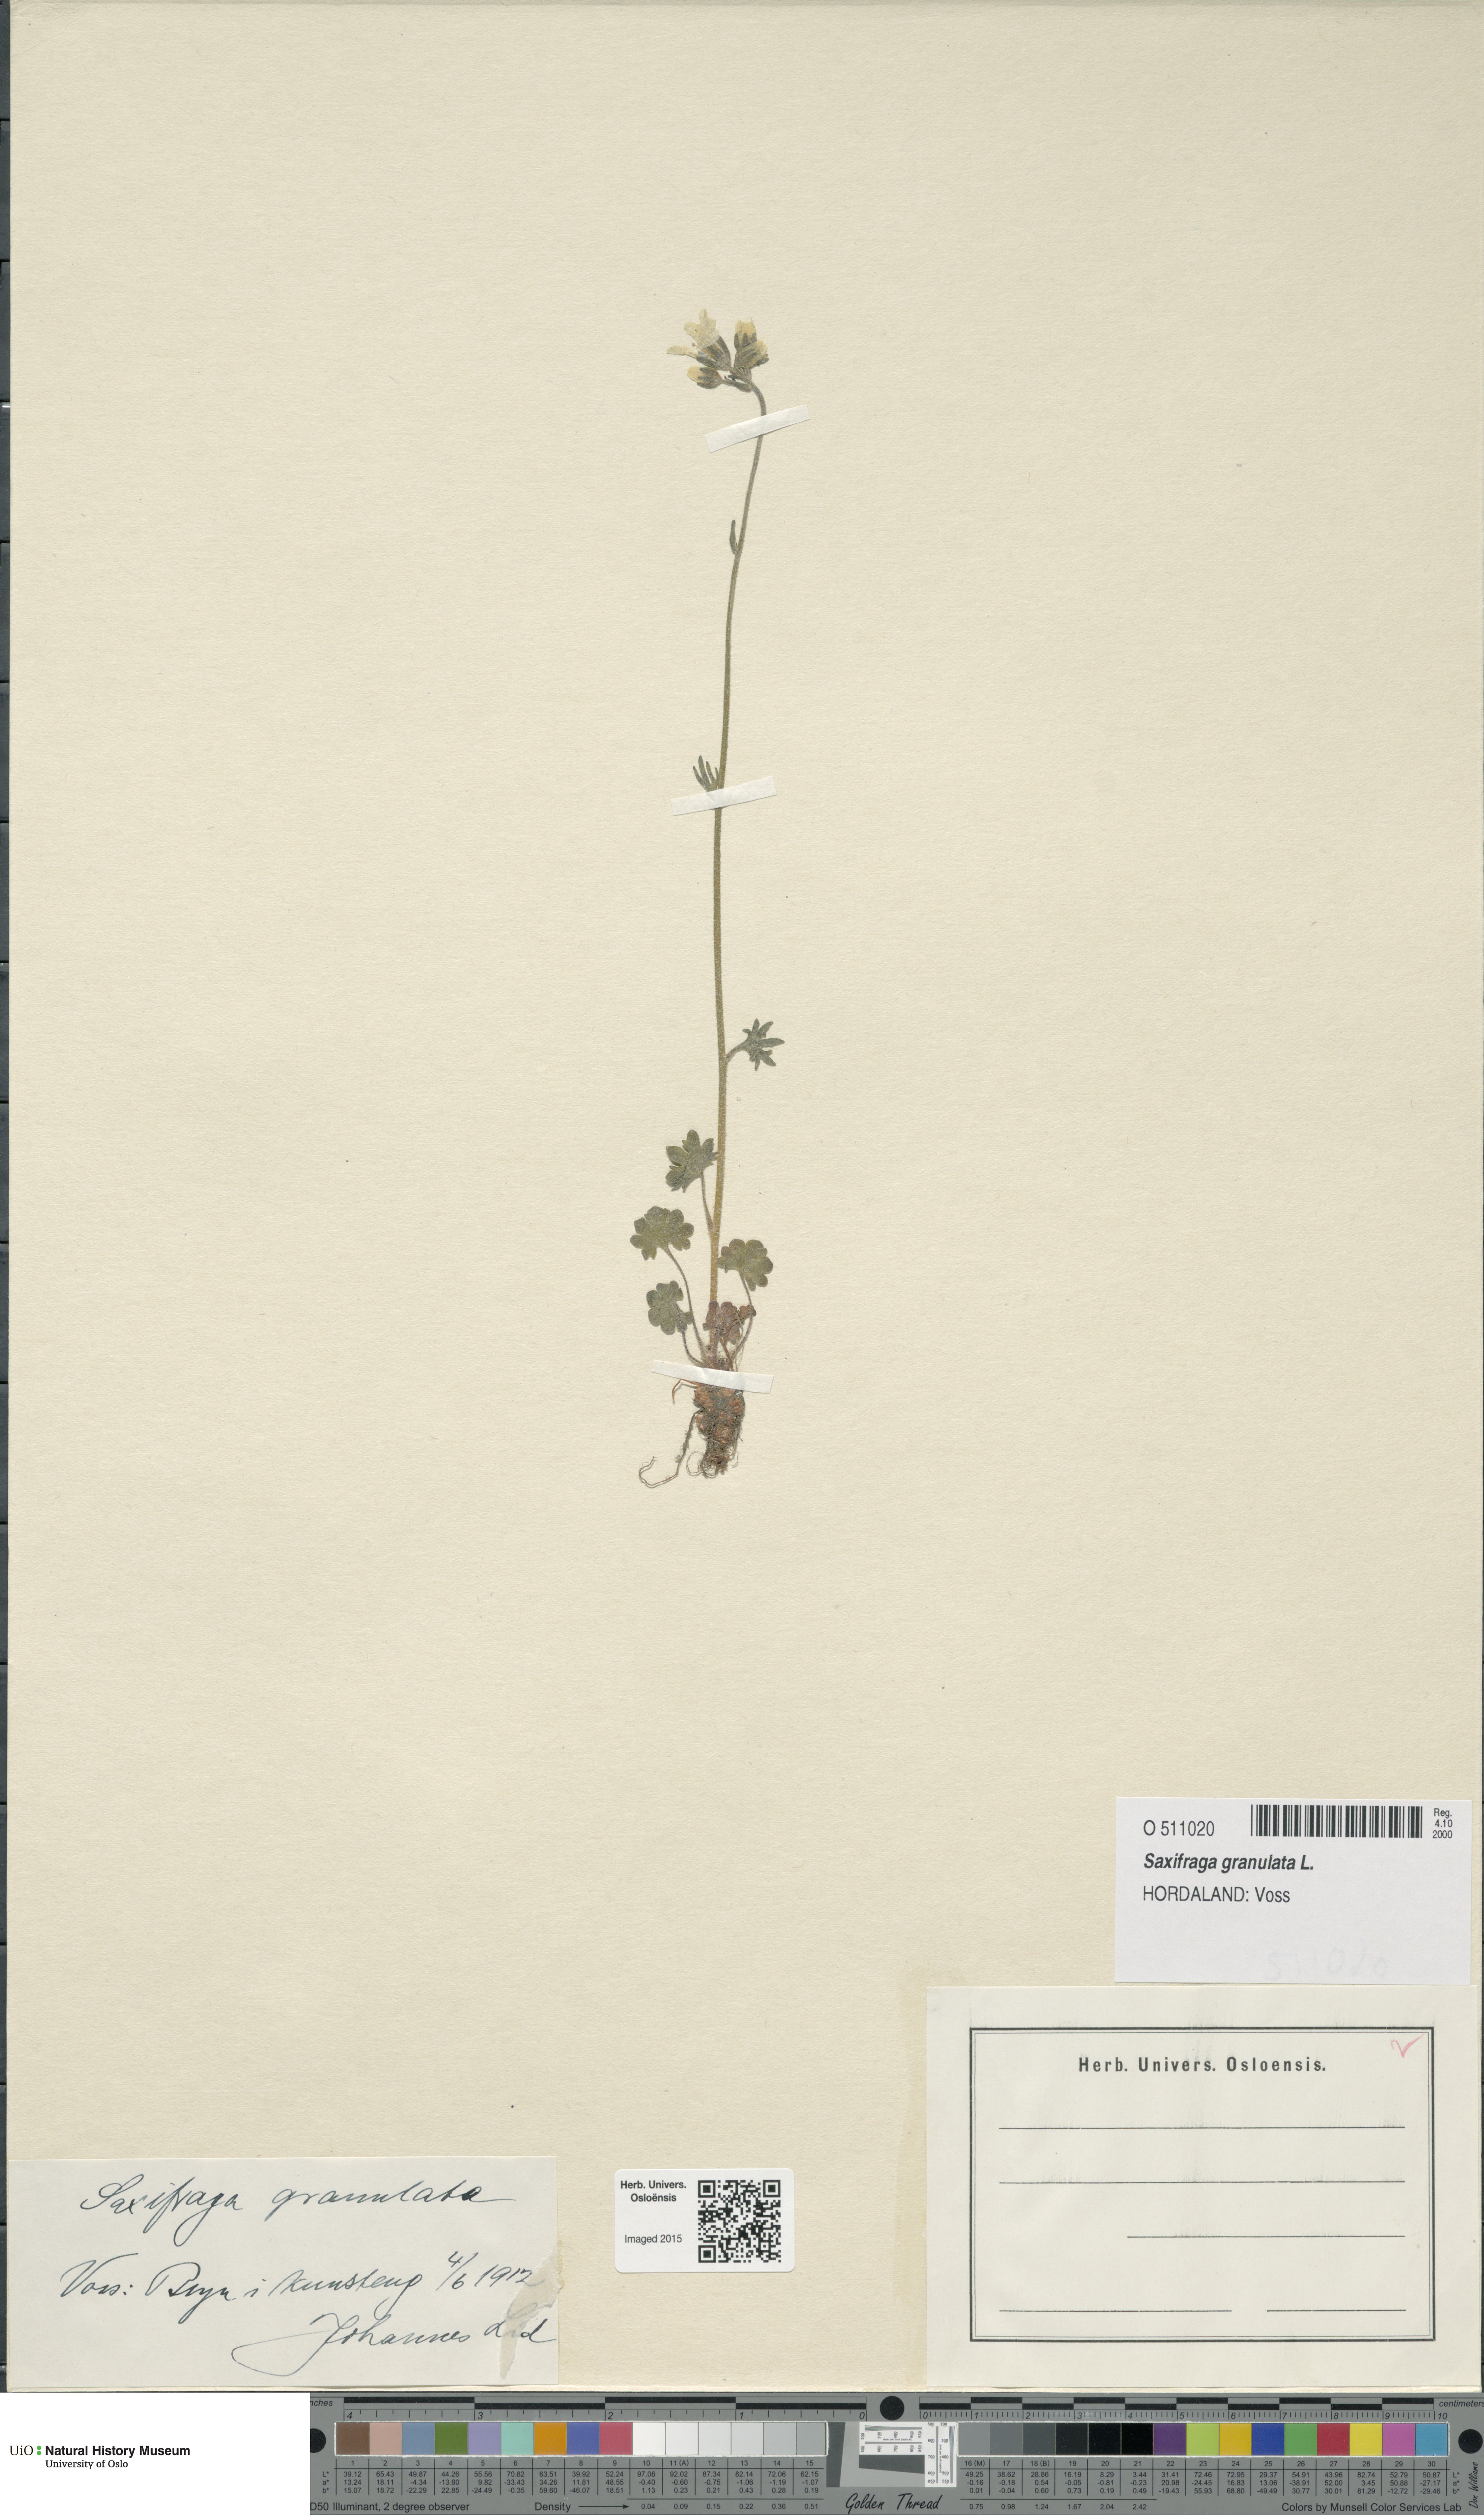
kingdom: Plantae
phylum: Tracheophyta
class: Magnoliopsida
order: Saxifragales
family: Saxifragaceae
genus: Saxifraga
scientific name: Saxifraga granulata
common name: Meadow saxifrage
